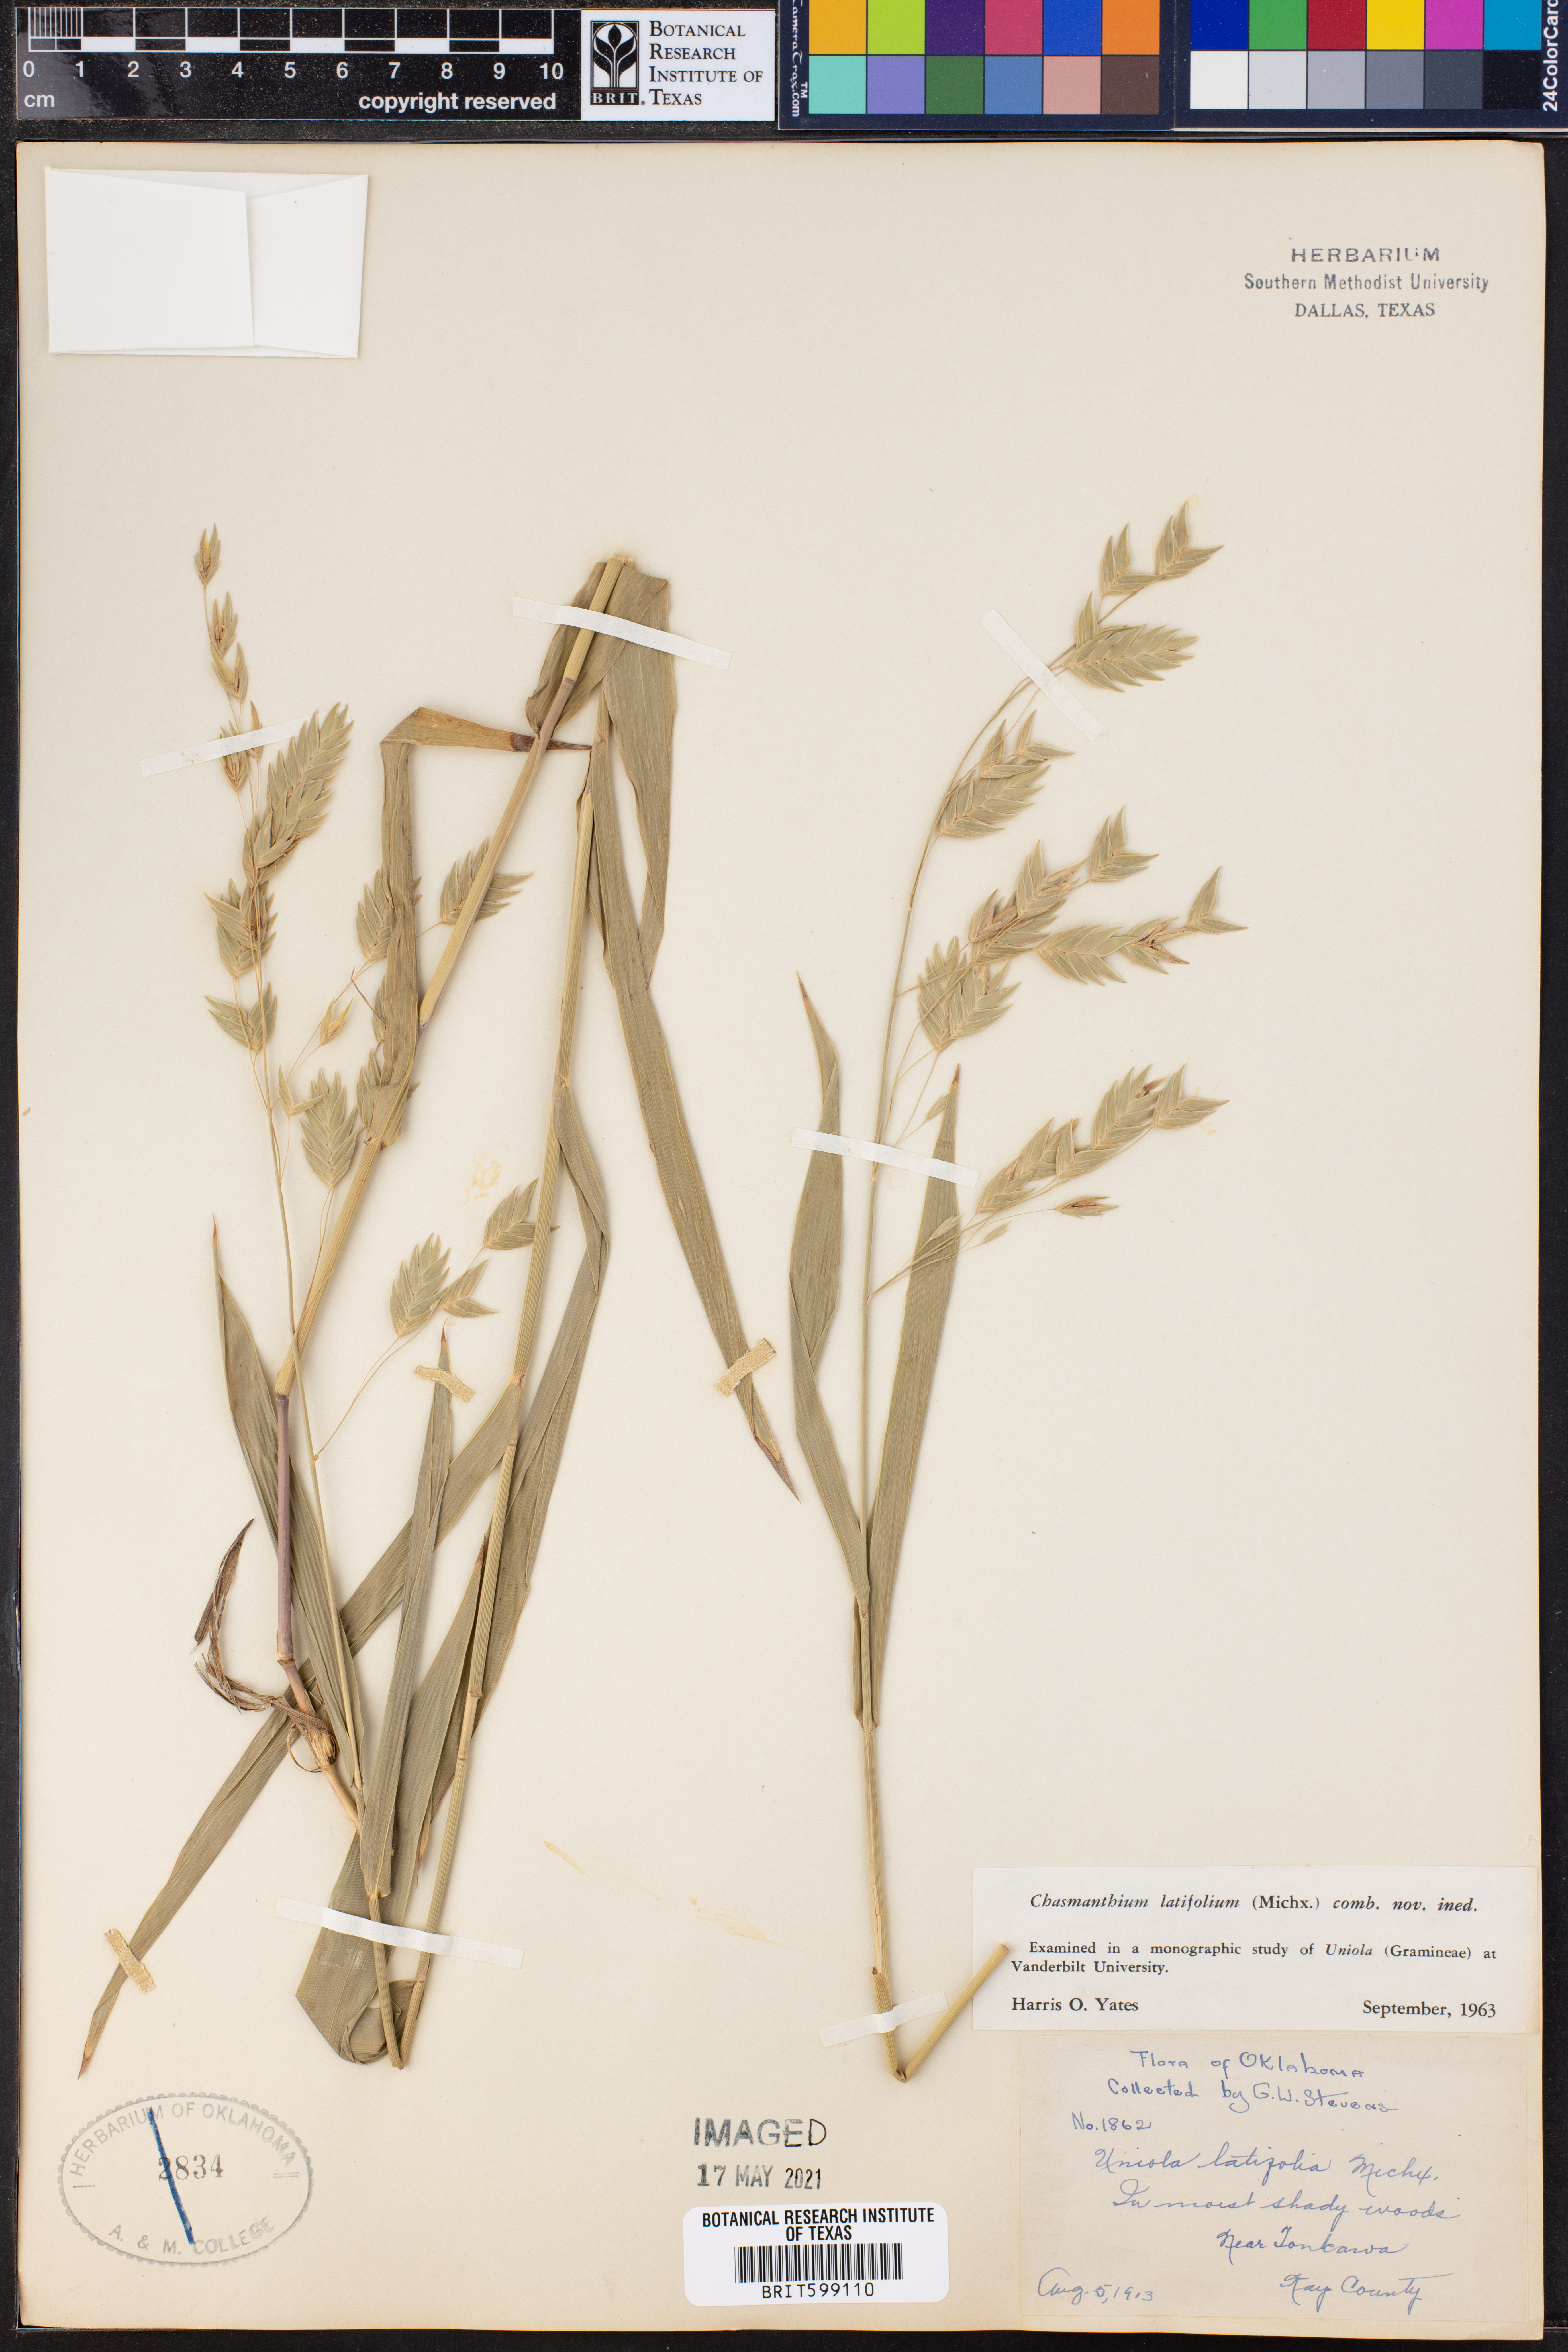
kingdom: Plantae
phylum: Tracheophyta
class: Liliopsida
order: Poales
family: Poaceae
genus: Chasmanthium
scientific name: Chasmanthium latifolium
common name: Broad-leaved chasmanthium
